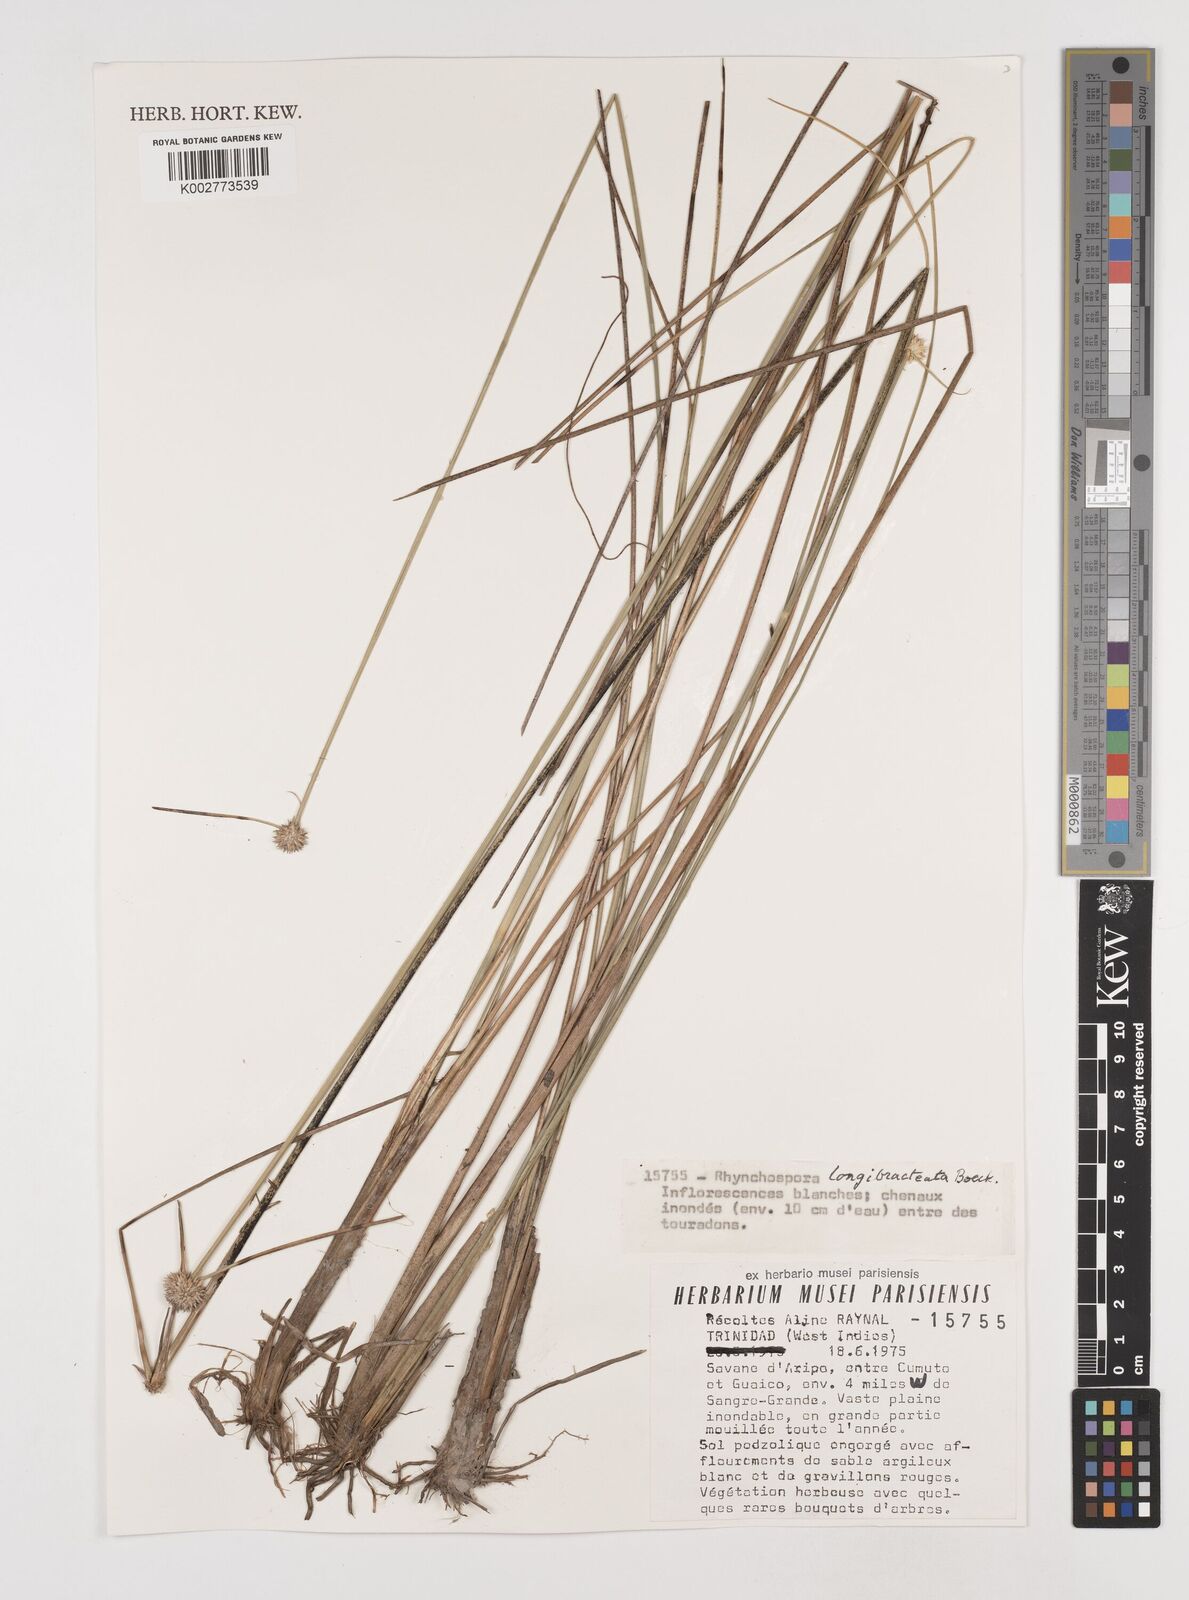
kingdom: Plantae
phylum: Tracheophyta
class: Liliopsida
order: Poales
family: Cyperaceae
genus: Rhynchospora
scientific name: Rhynchospora longibracteata
